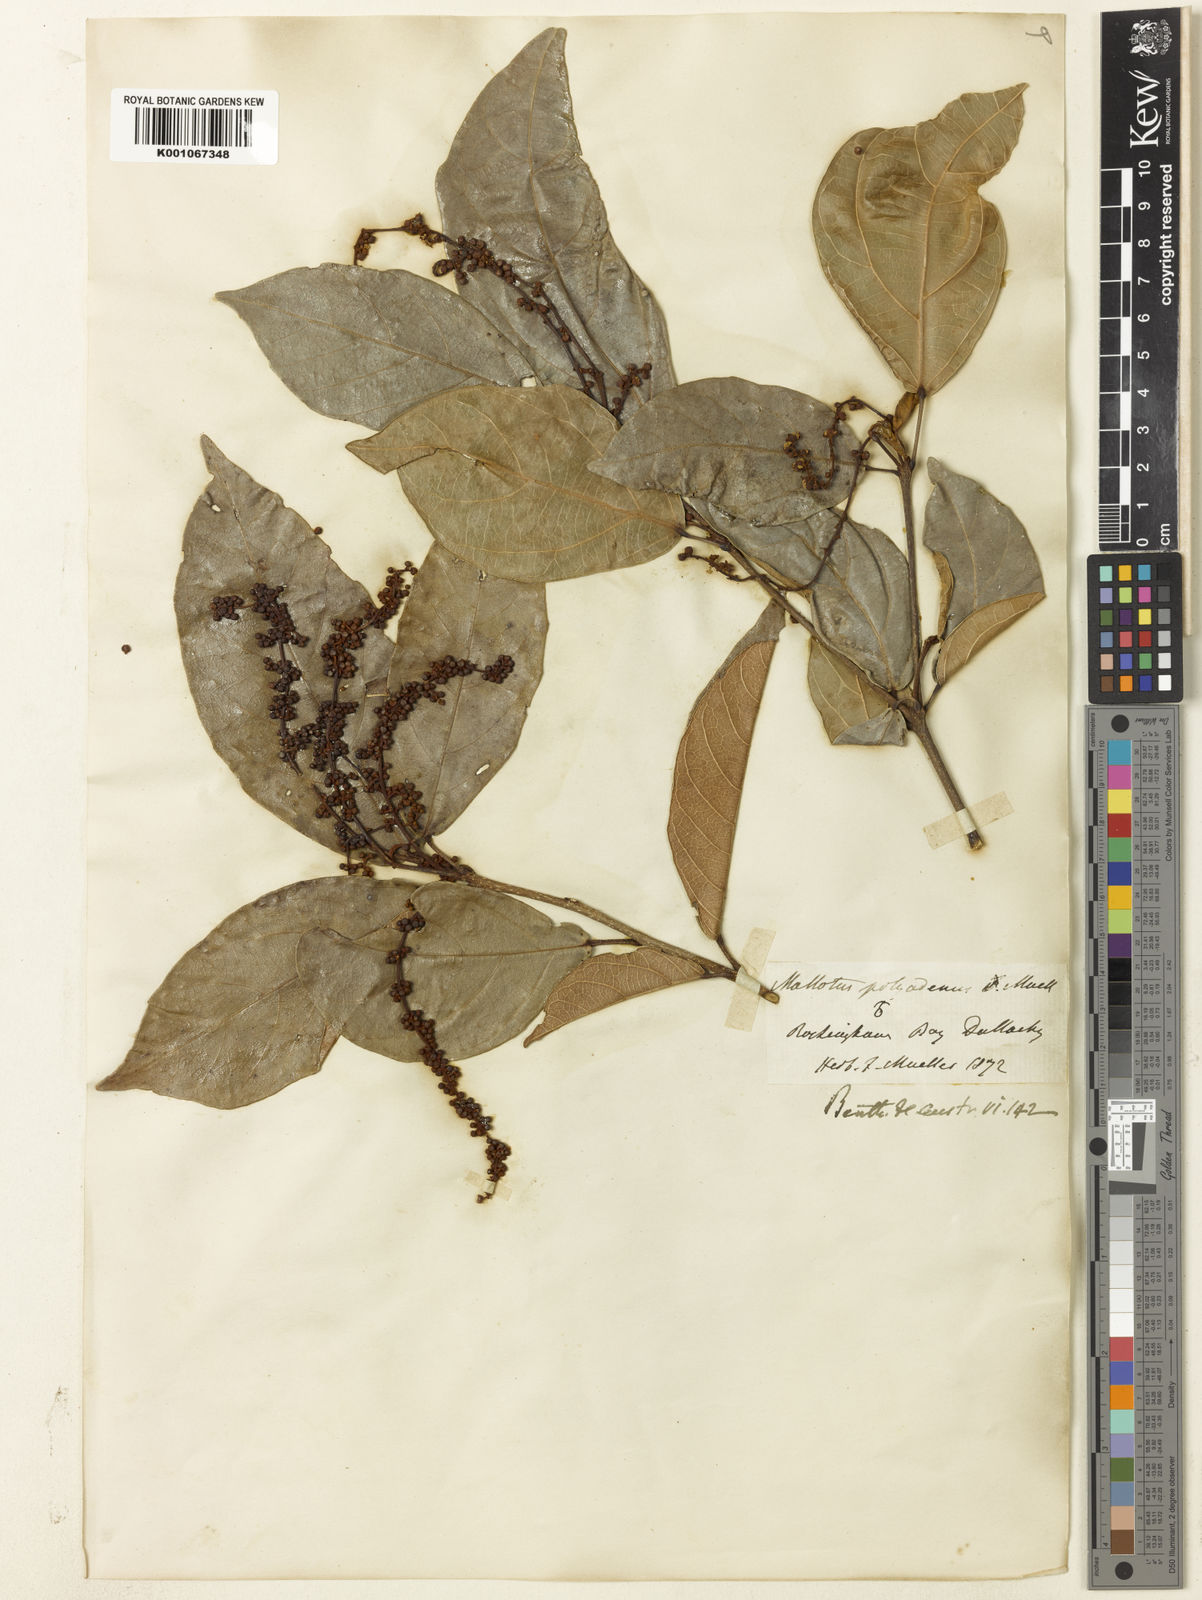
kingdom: Plantae
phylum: Tracheophyta
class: Magnoliopsida
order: Malpighiales
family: Euphorbiaceae
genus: Mallotus
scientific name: Mallotus polyadenos
